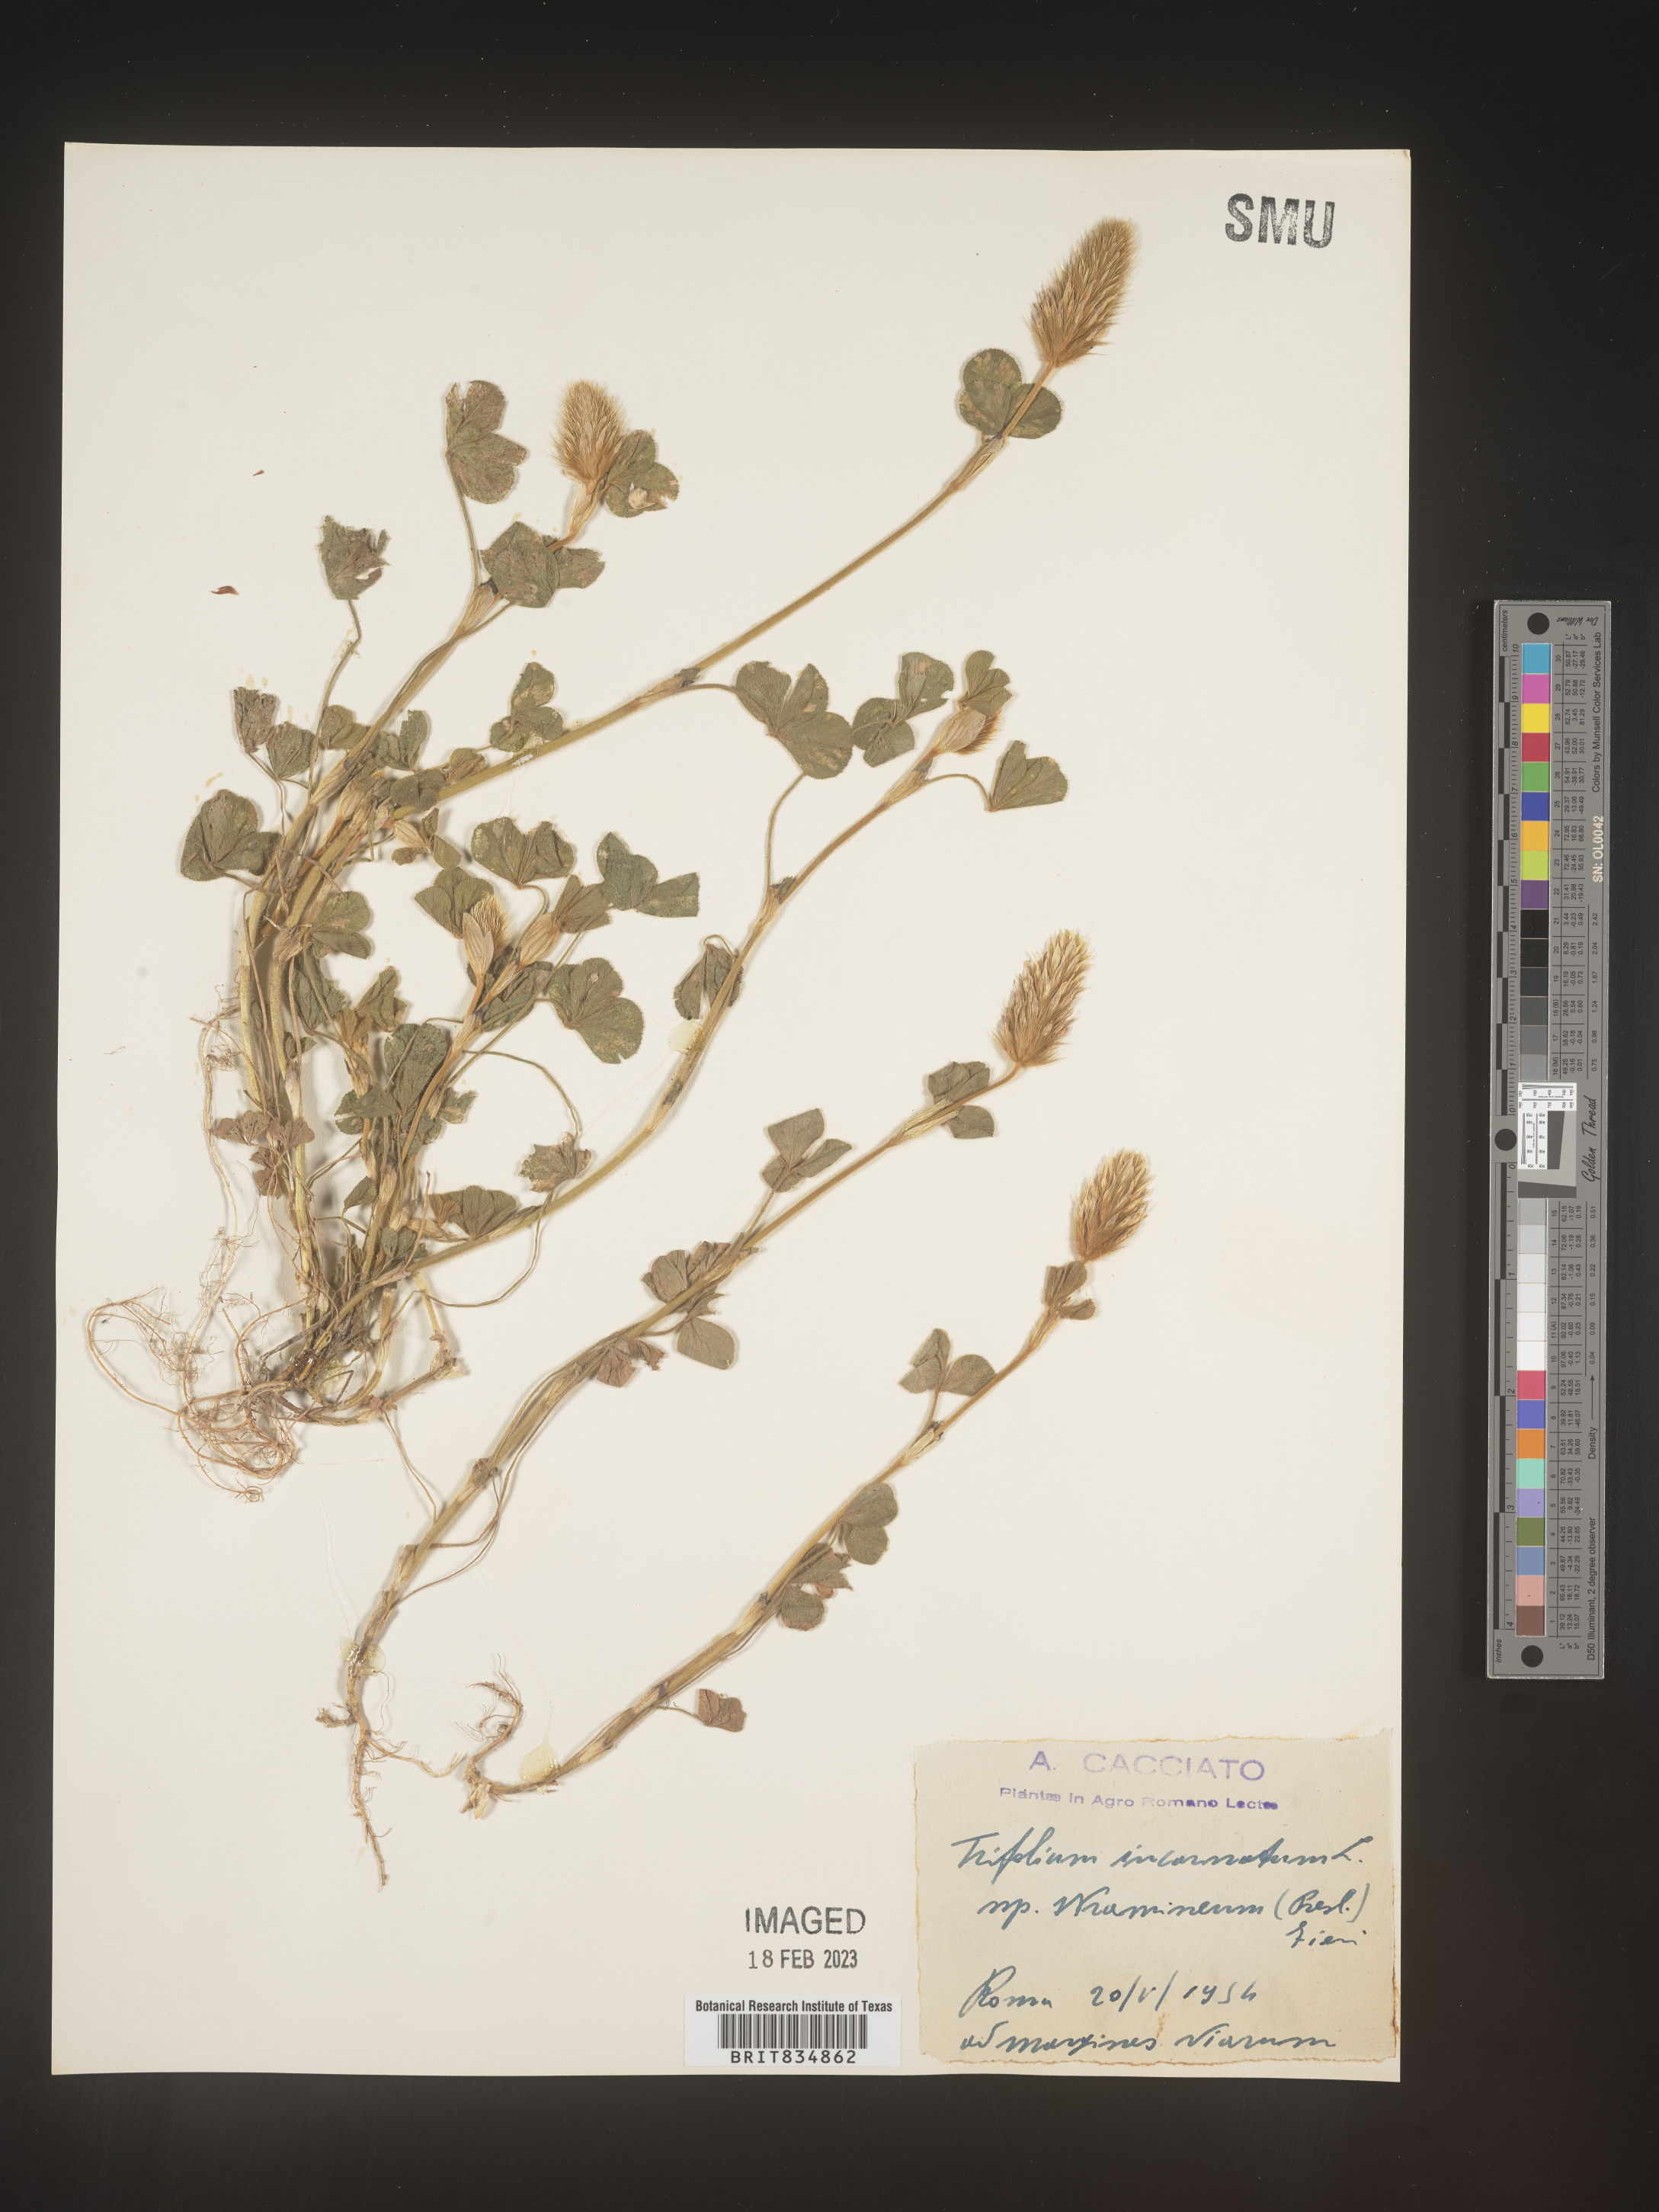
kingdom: Plantae
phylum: Tracheophyta
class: Magnoliopsida
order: Fabales
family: Fabaceae
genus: Trifolium
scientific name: Trifolium incarnatum
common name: Crimson clover
